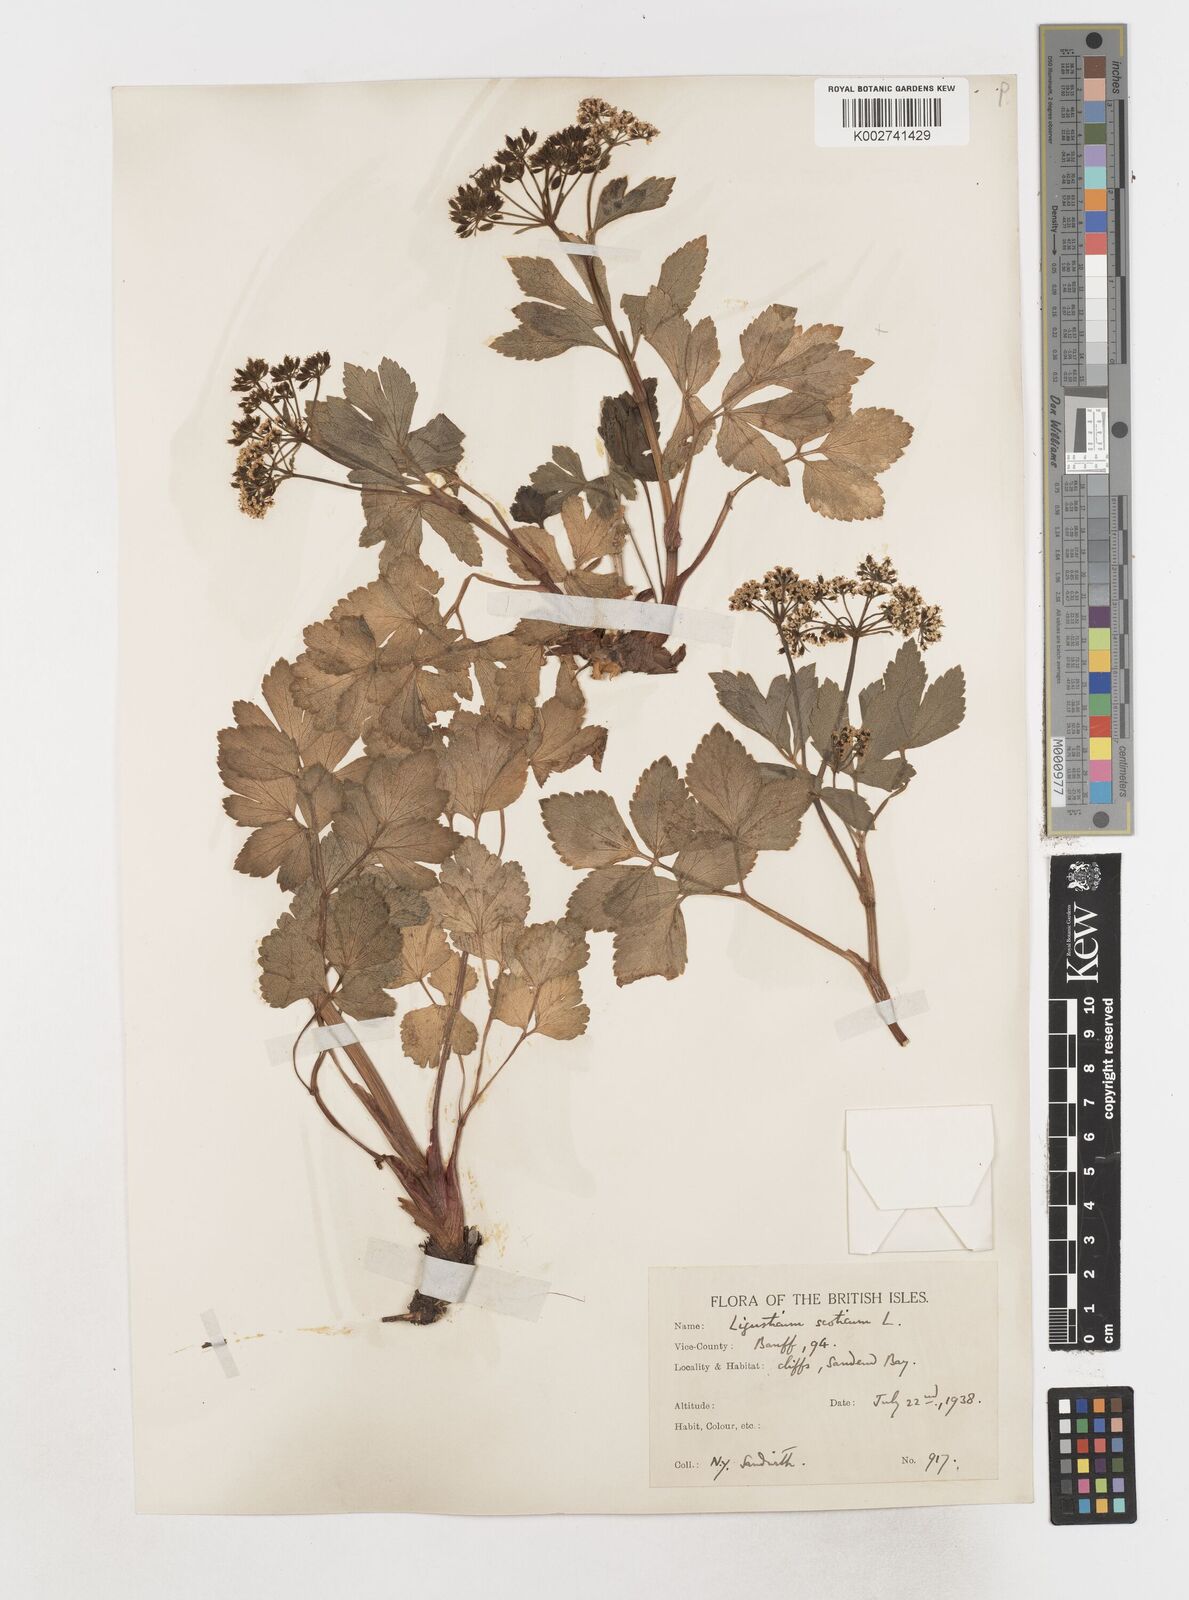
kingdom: Plantae
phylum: Tracheophyta
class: Magnoliopsida
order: Apiales
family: Apiaceae
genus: Ligusticum
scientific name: Ligusticum scothicum
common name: Beach lovage
